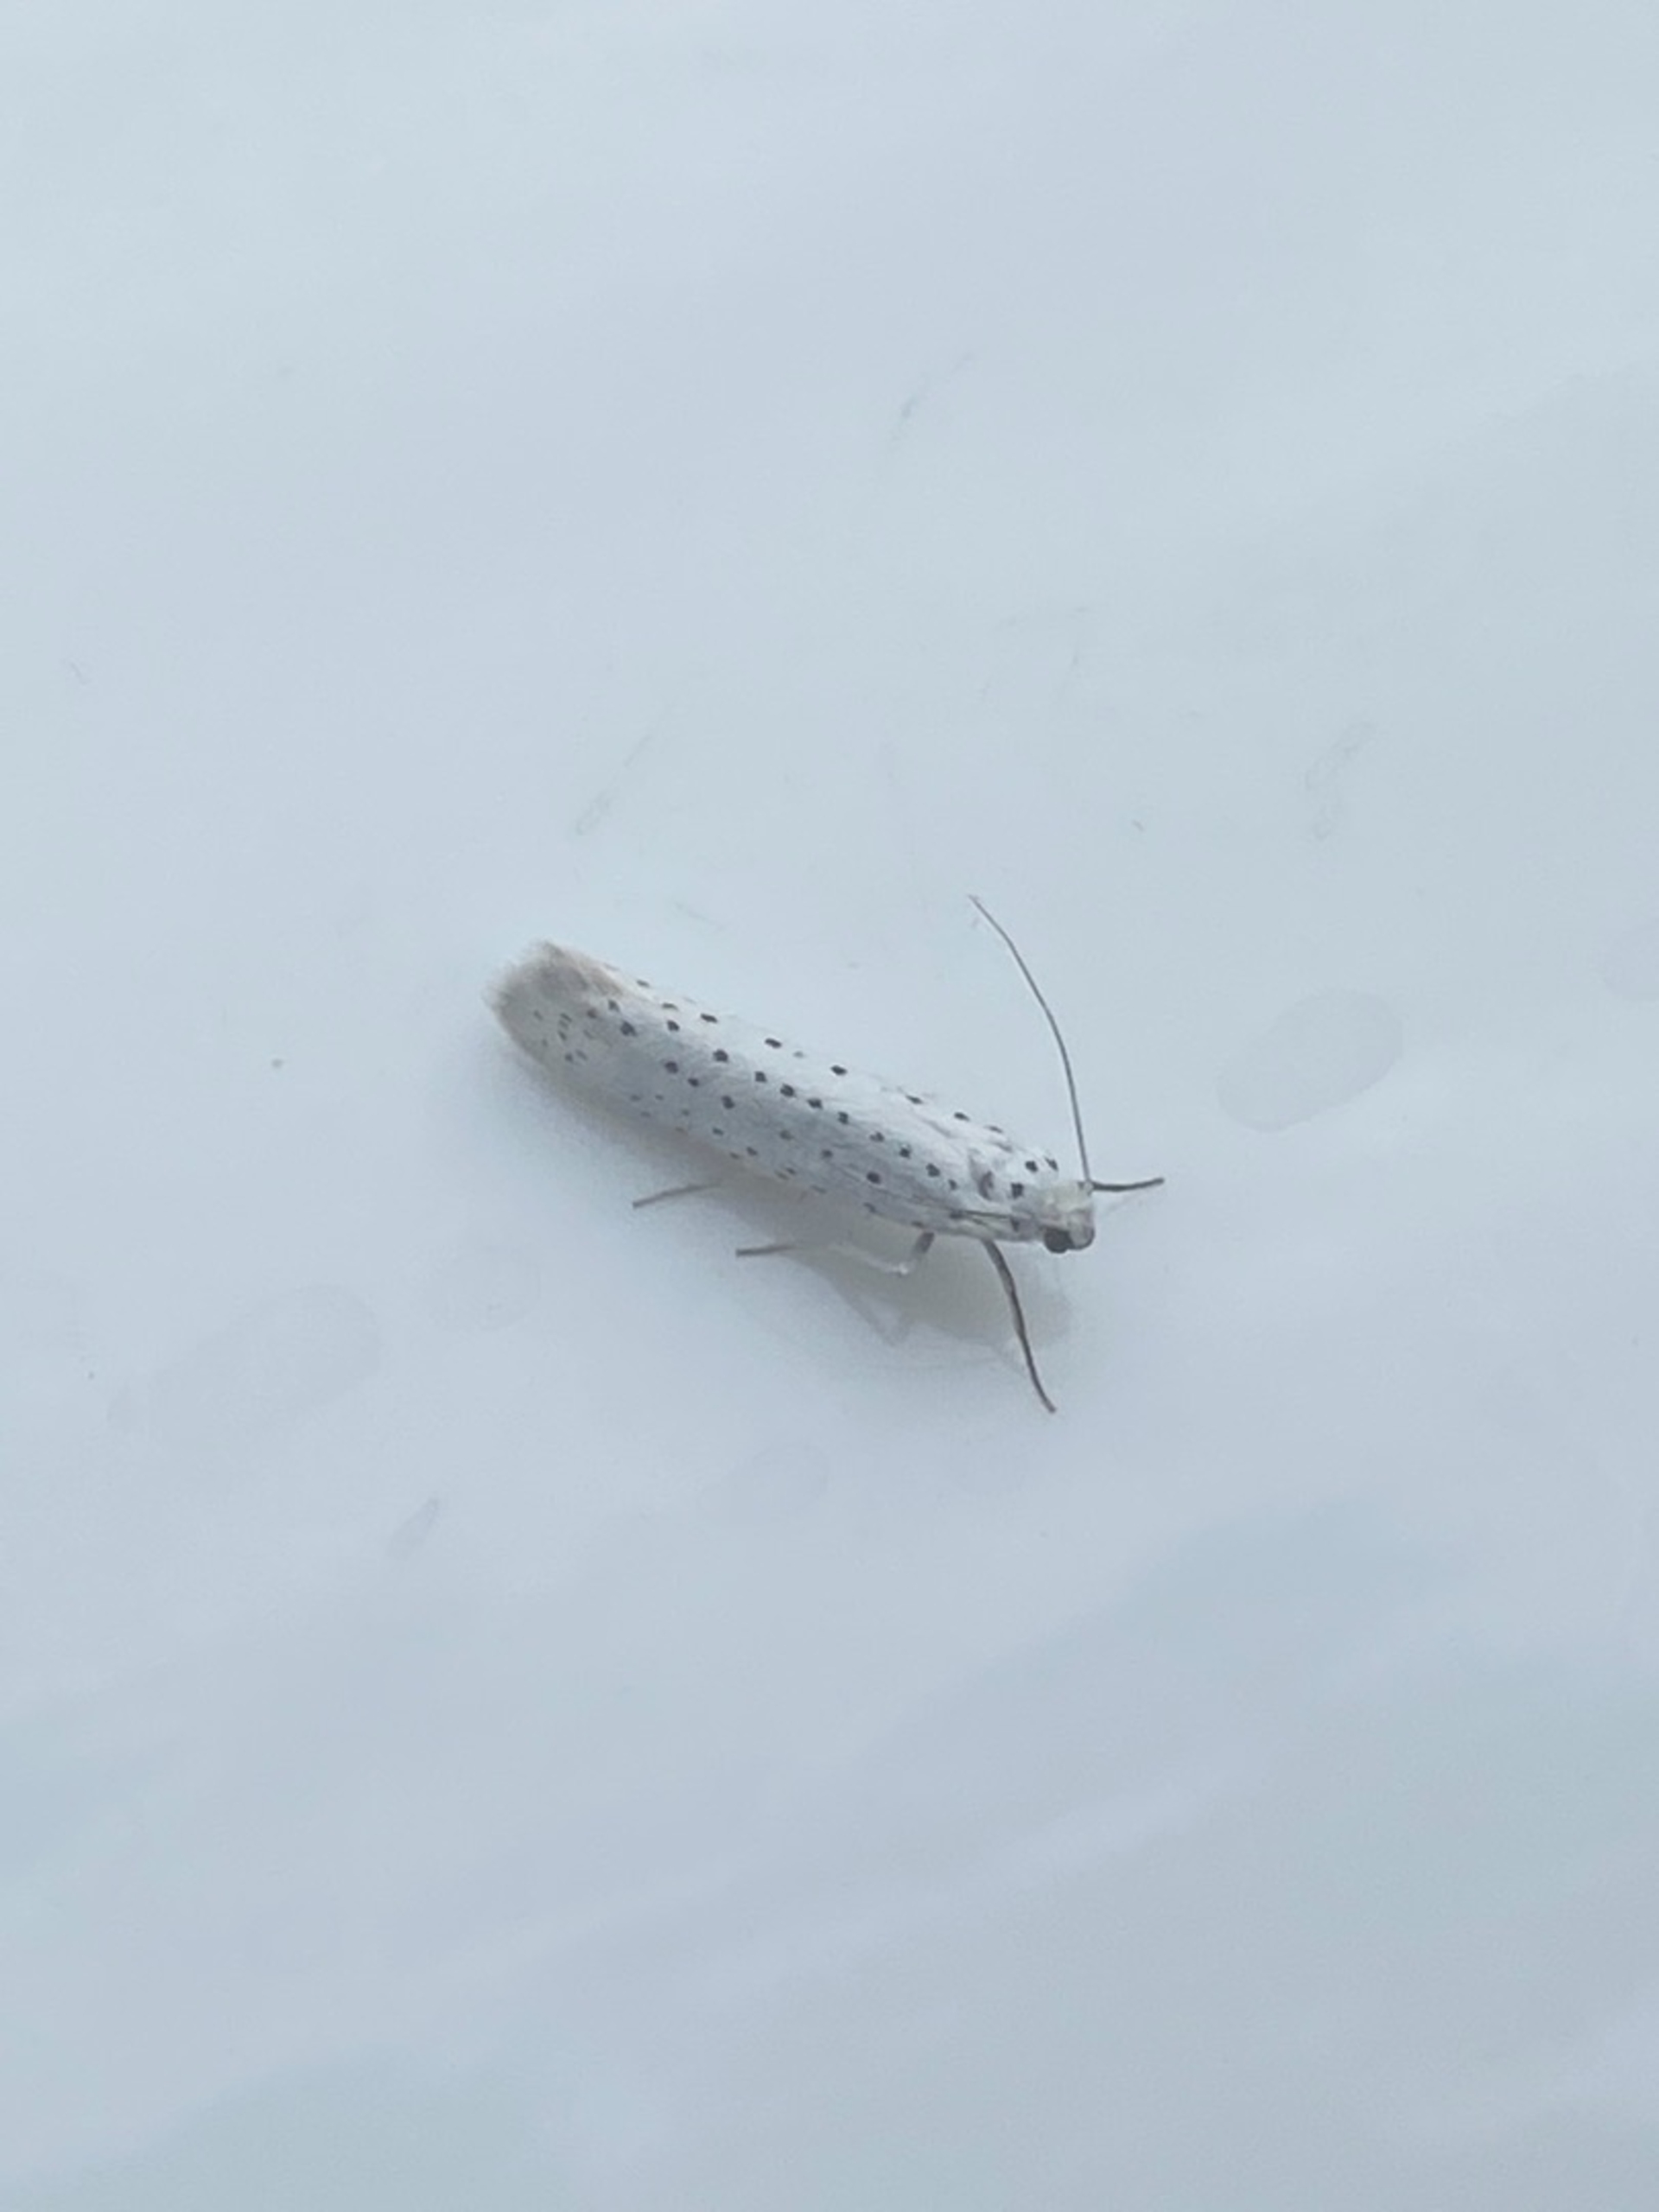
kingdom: Animalia
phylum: Arthropoda
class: Insecta
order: Lepidoptera
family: Yponomeutidae
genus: Yponomeuta
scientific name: Yponomeuta evonymella
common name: Hægspindemøl
